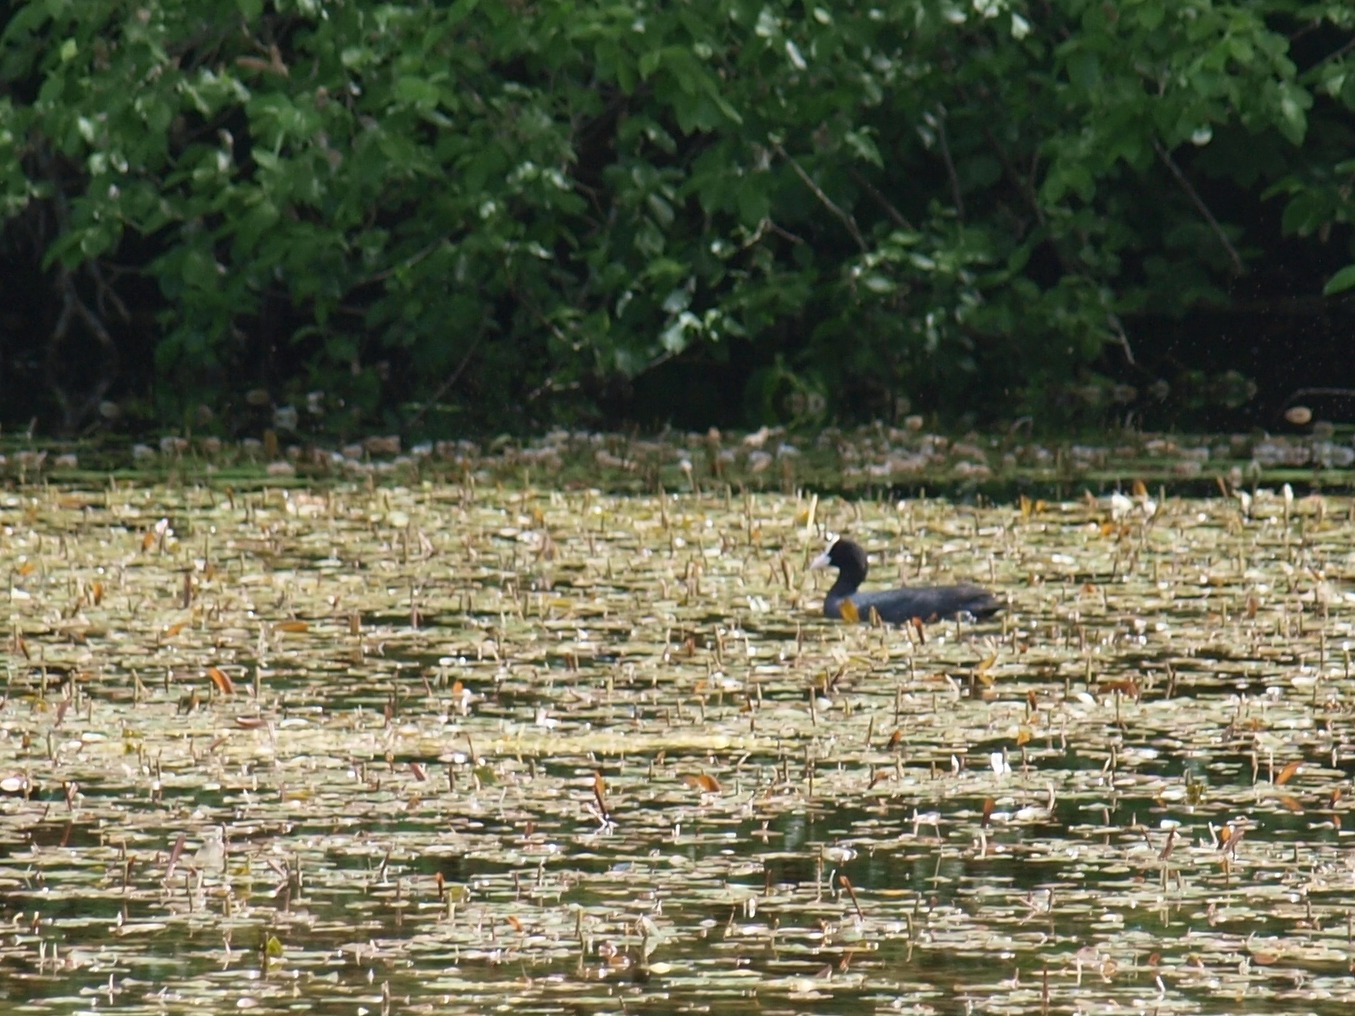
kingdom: Animalia
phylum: Chordata
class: Aves
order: Gruiformes
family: Rallidae
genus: Fulica
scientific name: Fulica atra
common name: Blishøne
